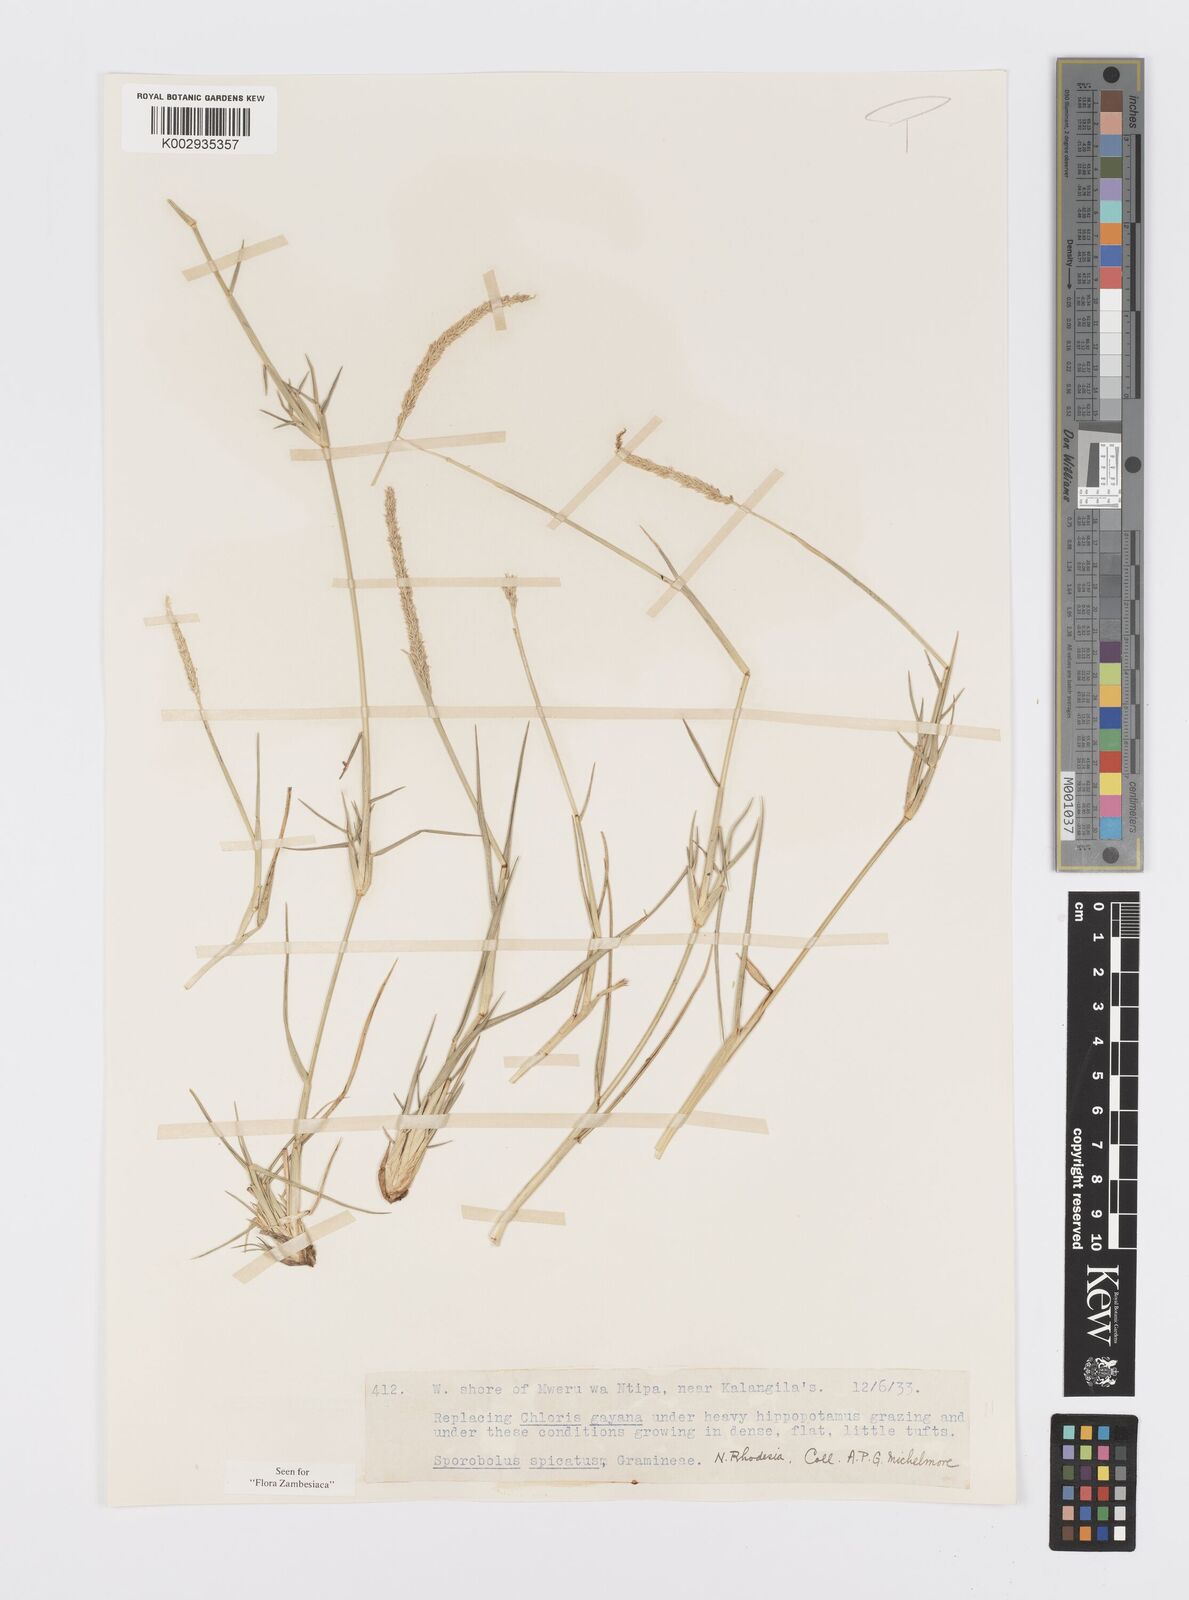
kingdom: Plantae
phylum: Tracheophyta
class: Liliopsida
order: Poales
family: Poaceae
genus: Sporobolus
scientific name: Sporobolus spicatus
